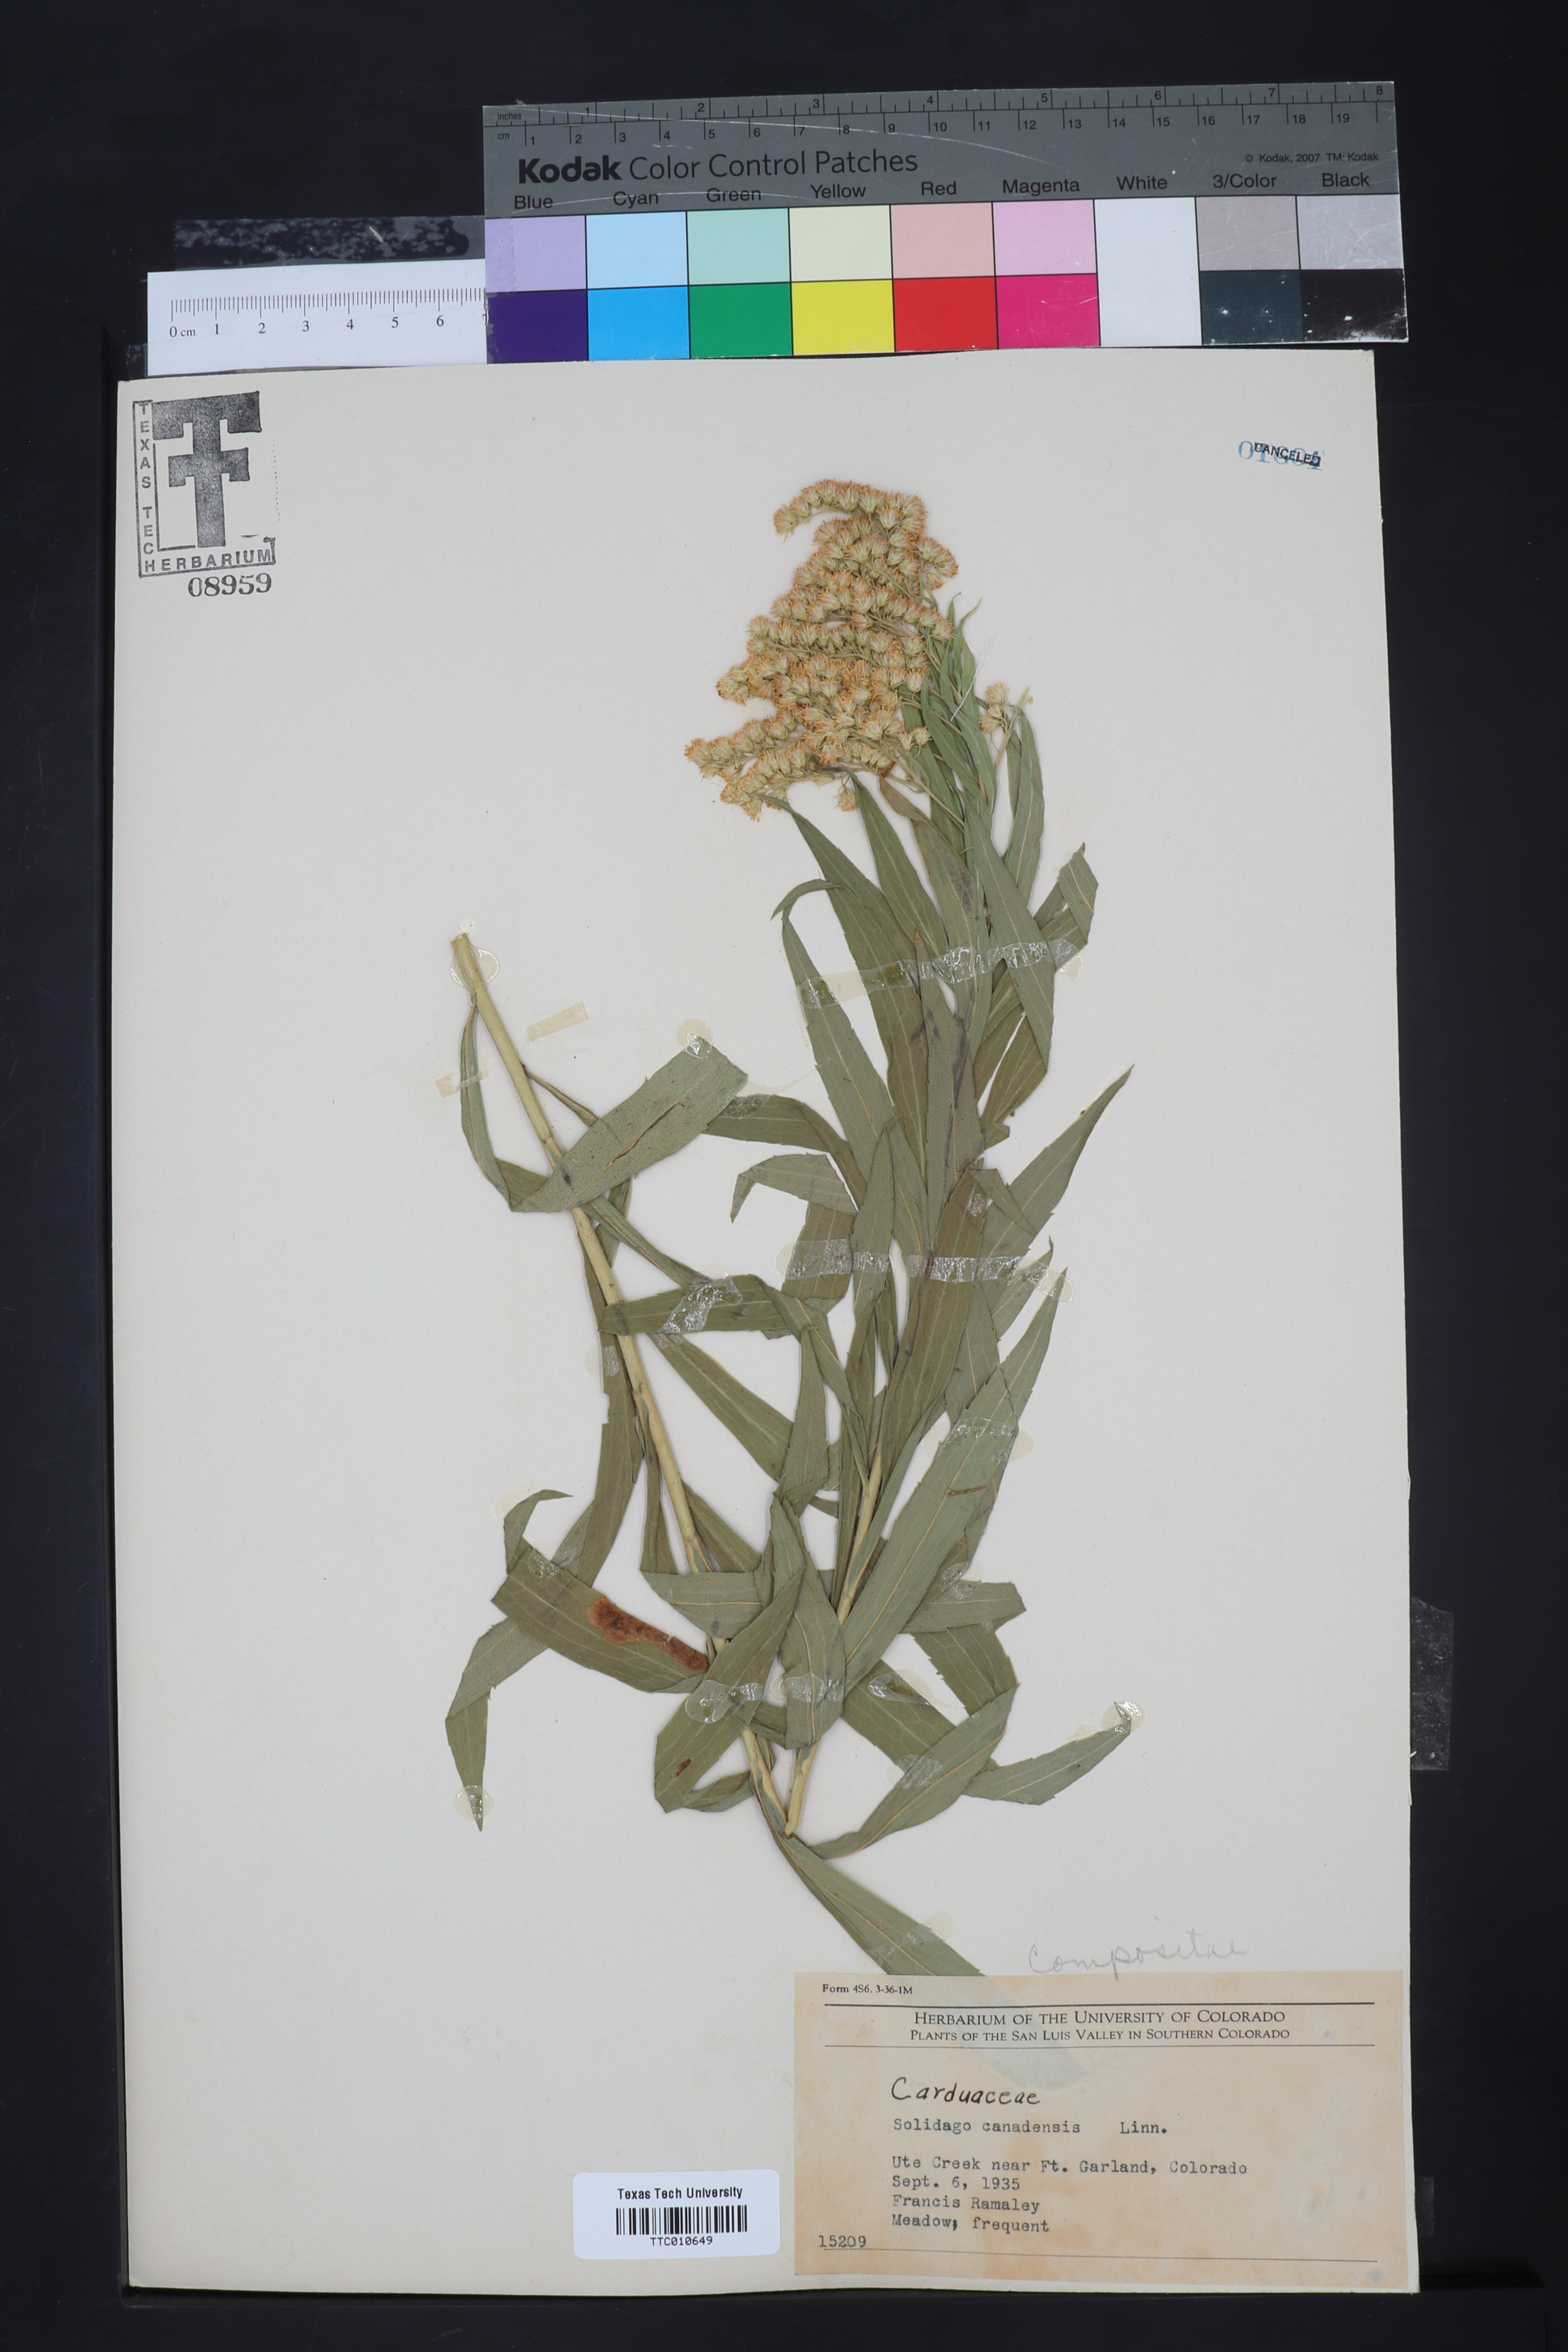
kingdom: Plantae
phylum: Tracheophyta
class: Magnoliopsida
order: Asterales
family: Asteraceae
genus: Solidago
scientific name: Solidago canadensis
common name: Canada goldenrod
